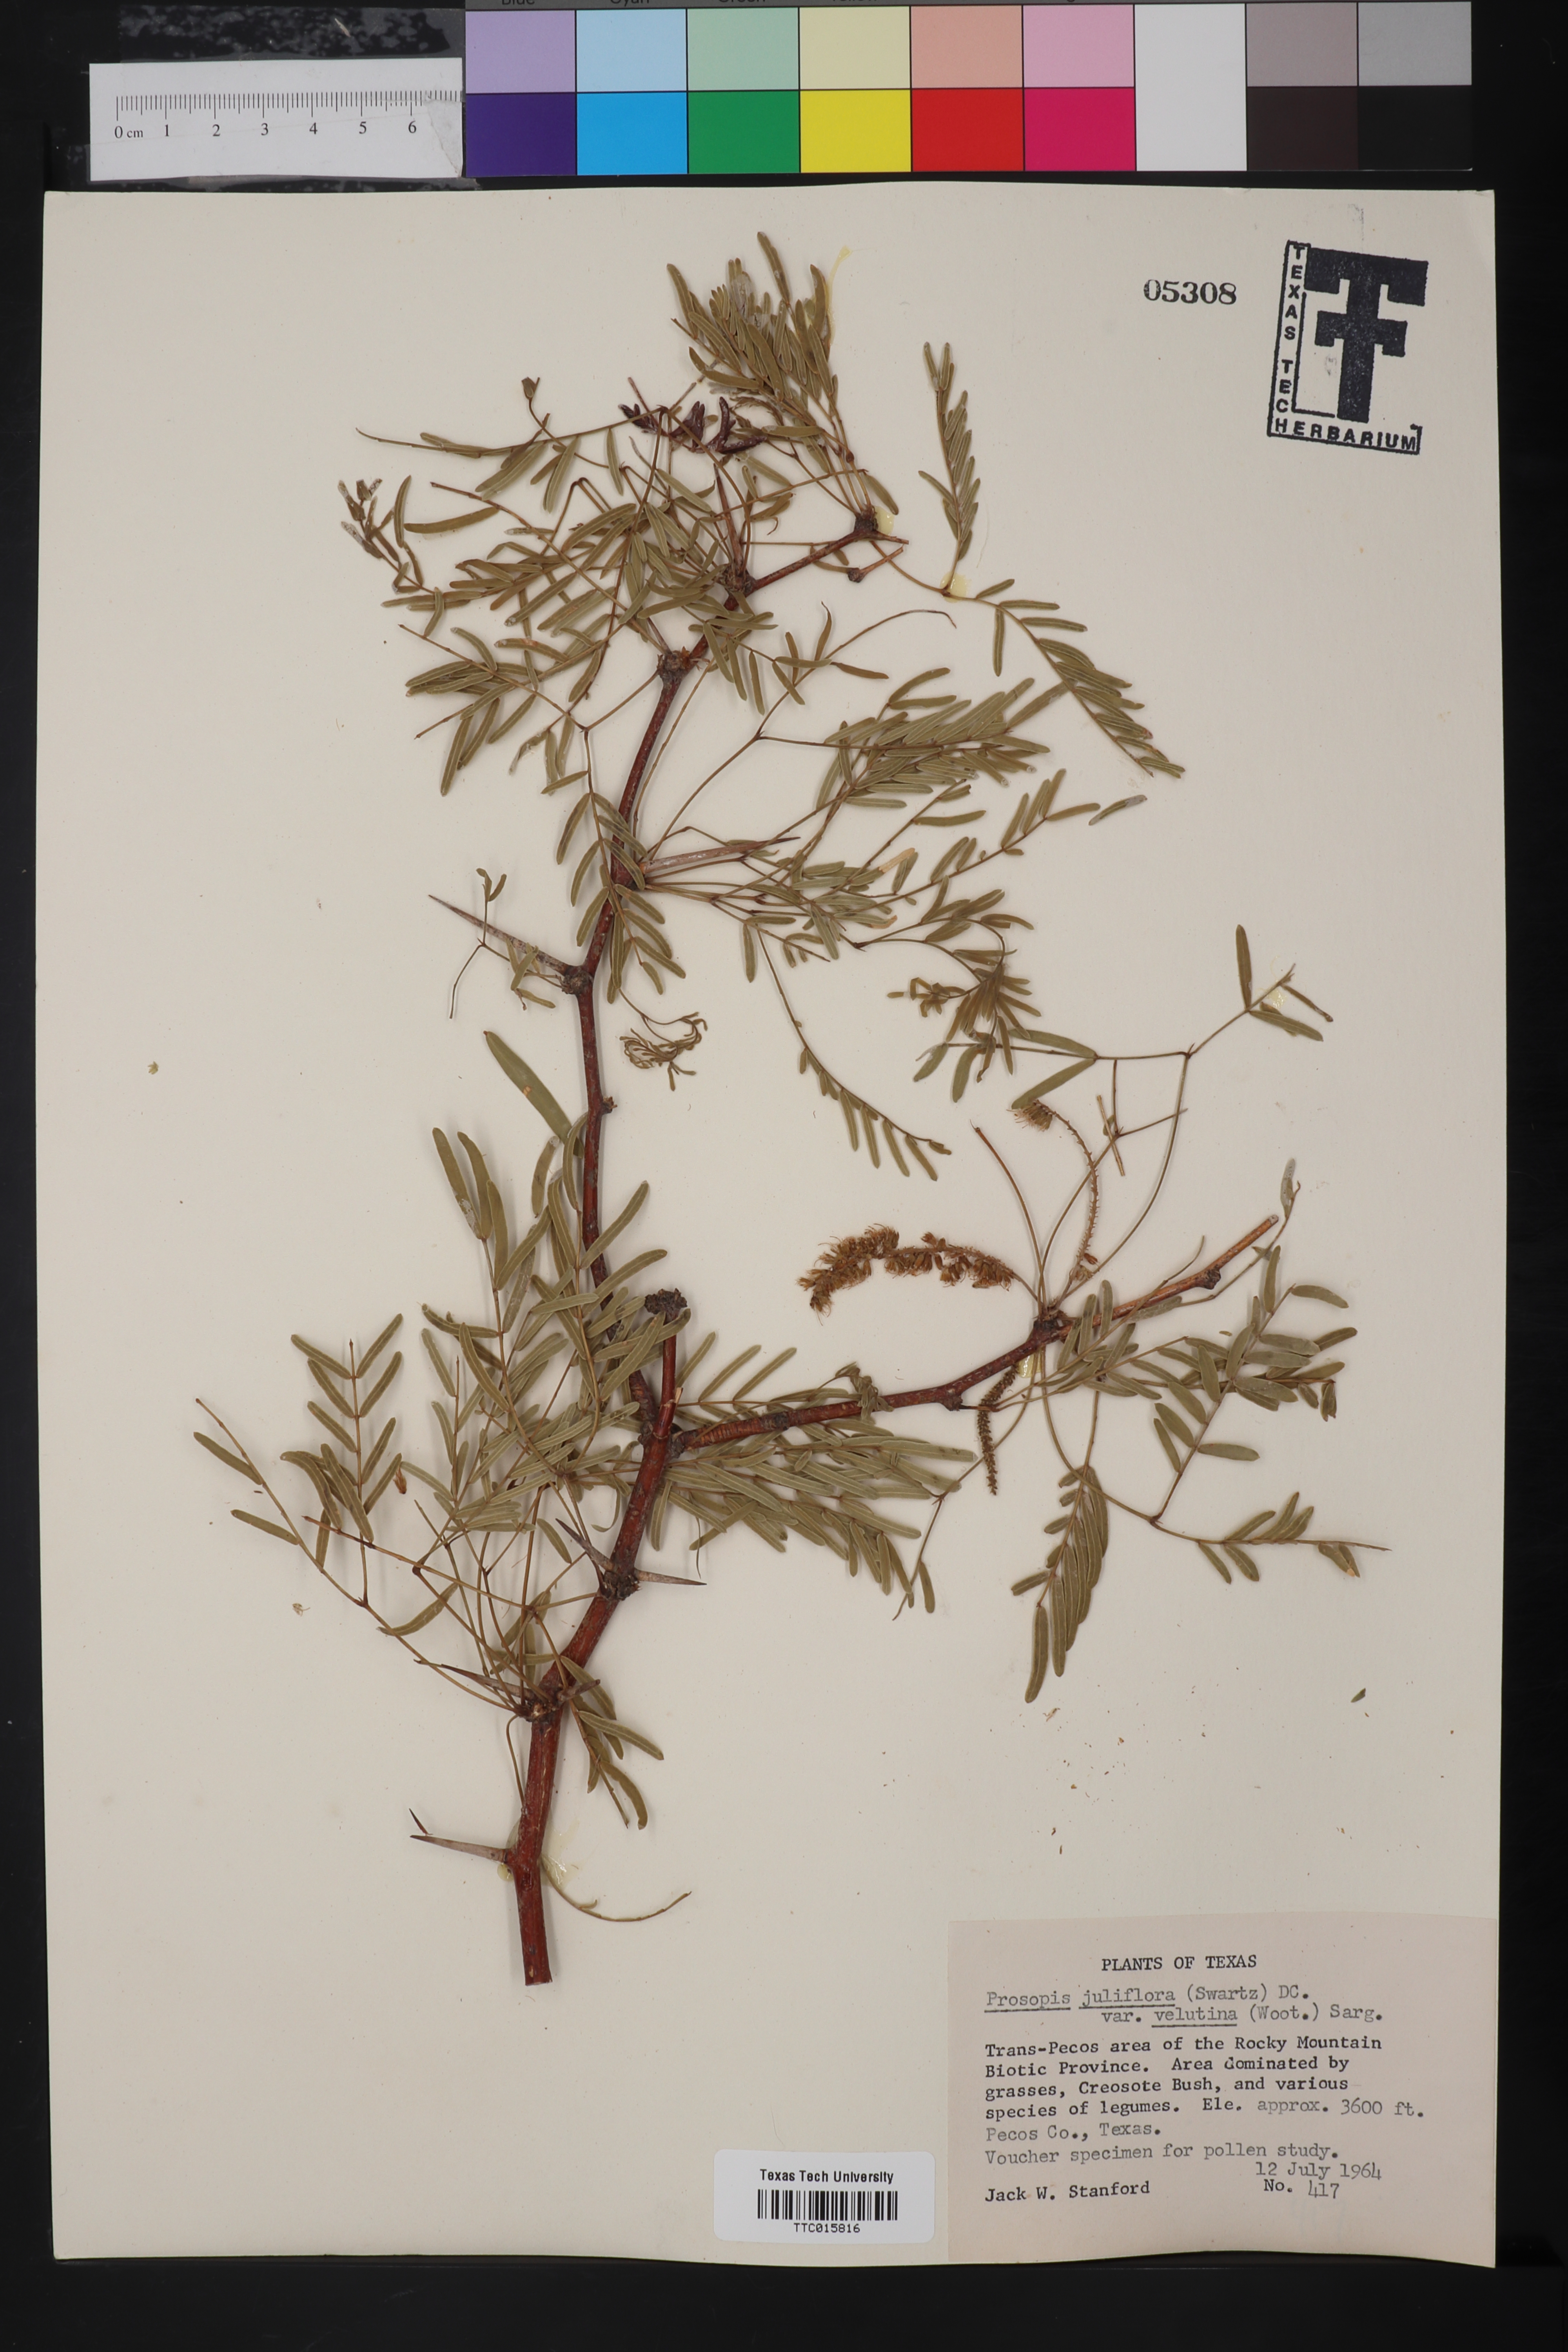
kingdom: Plantae
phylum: Tracheophyta
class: Magnoliopsida
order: Fabales
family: Fabaceae
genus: Prosopis
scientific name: Prosopis velutina
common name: Velvet mesquite
